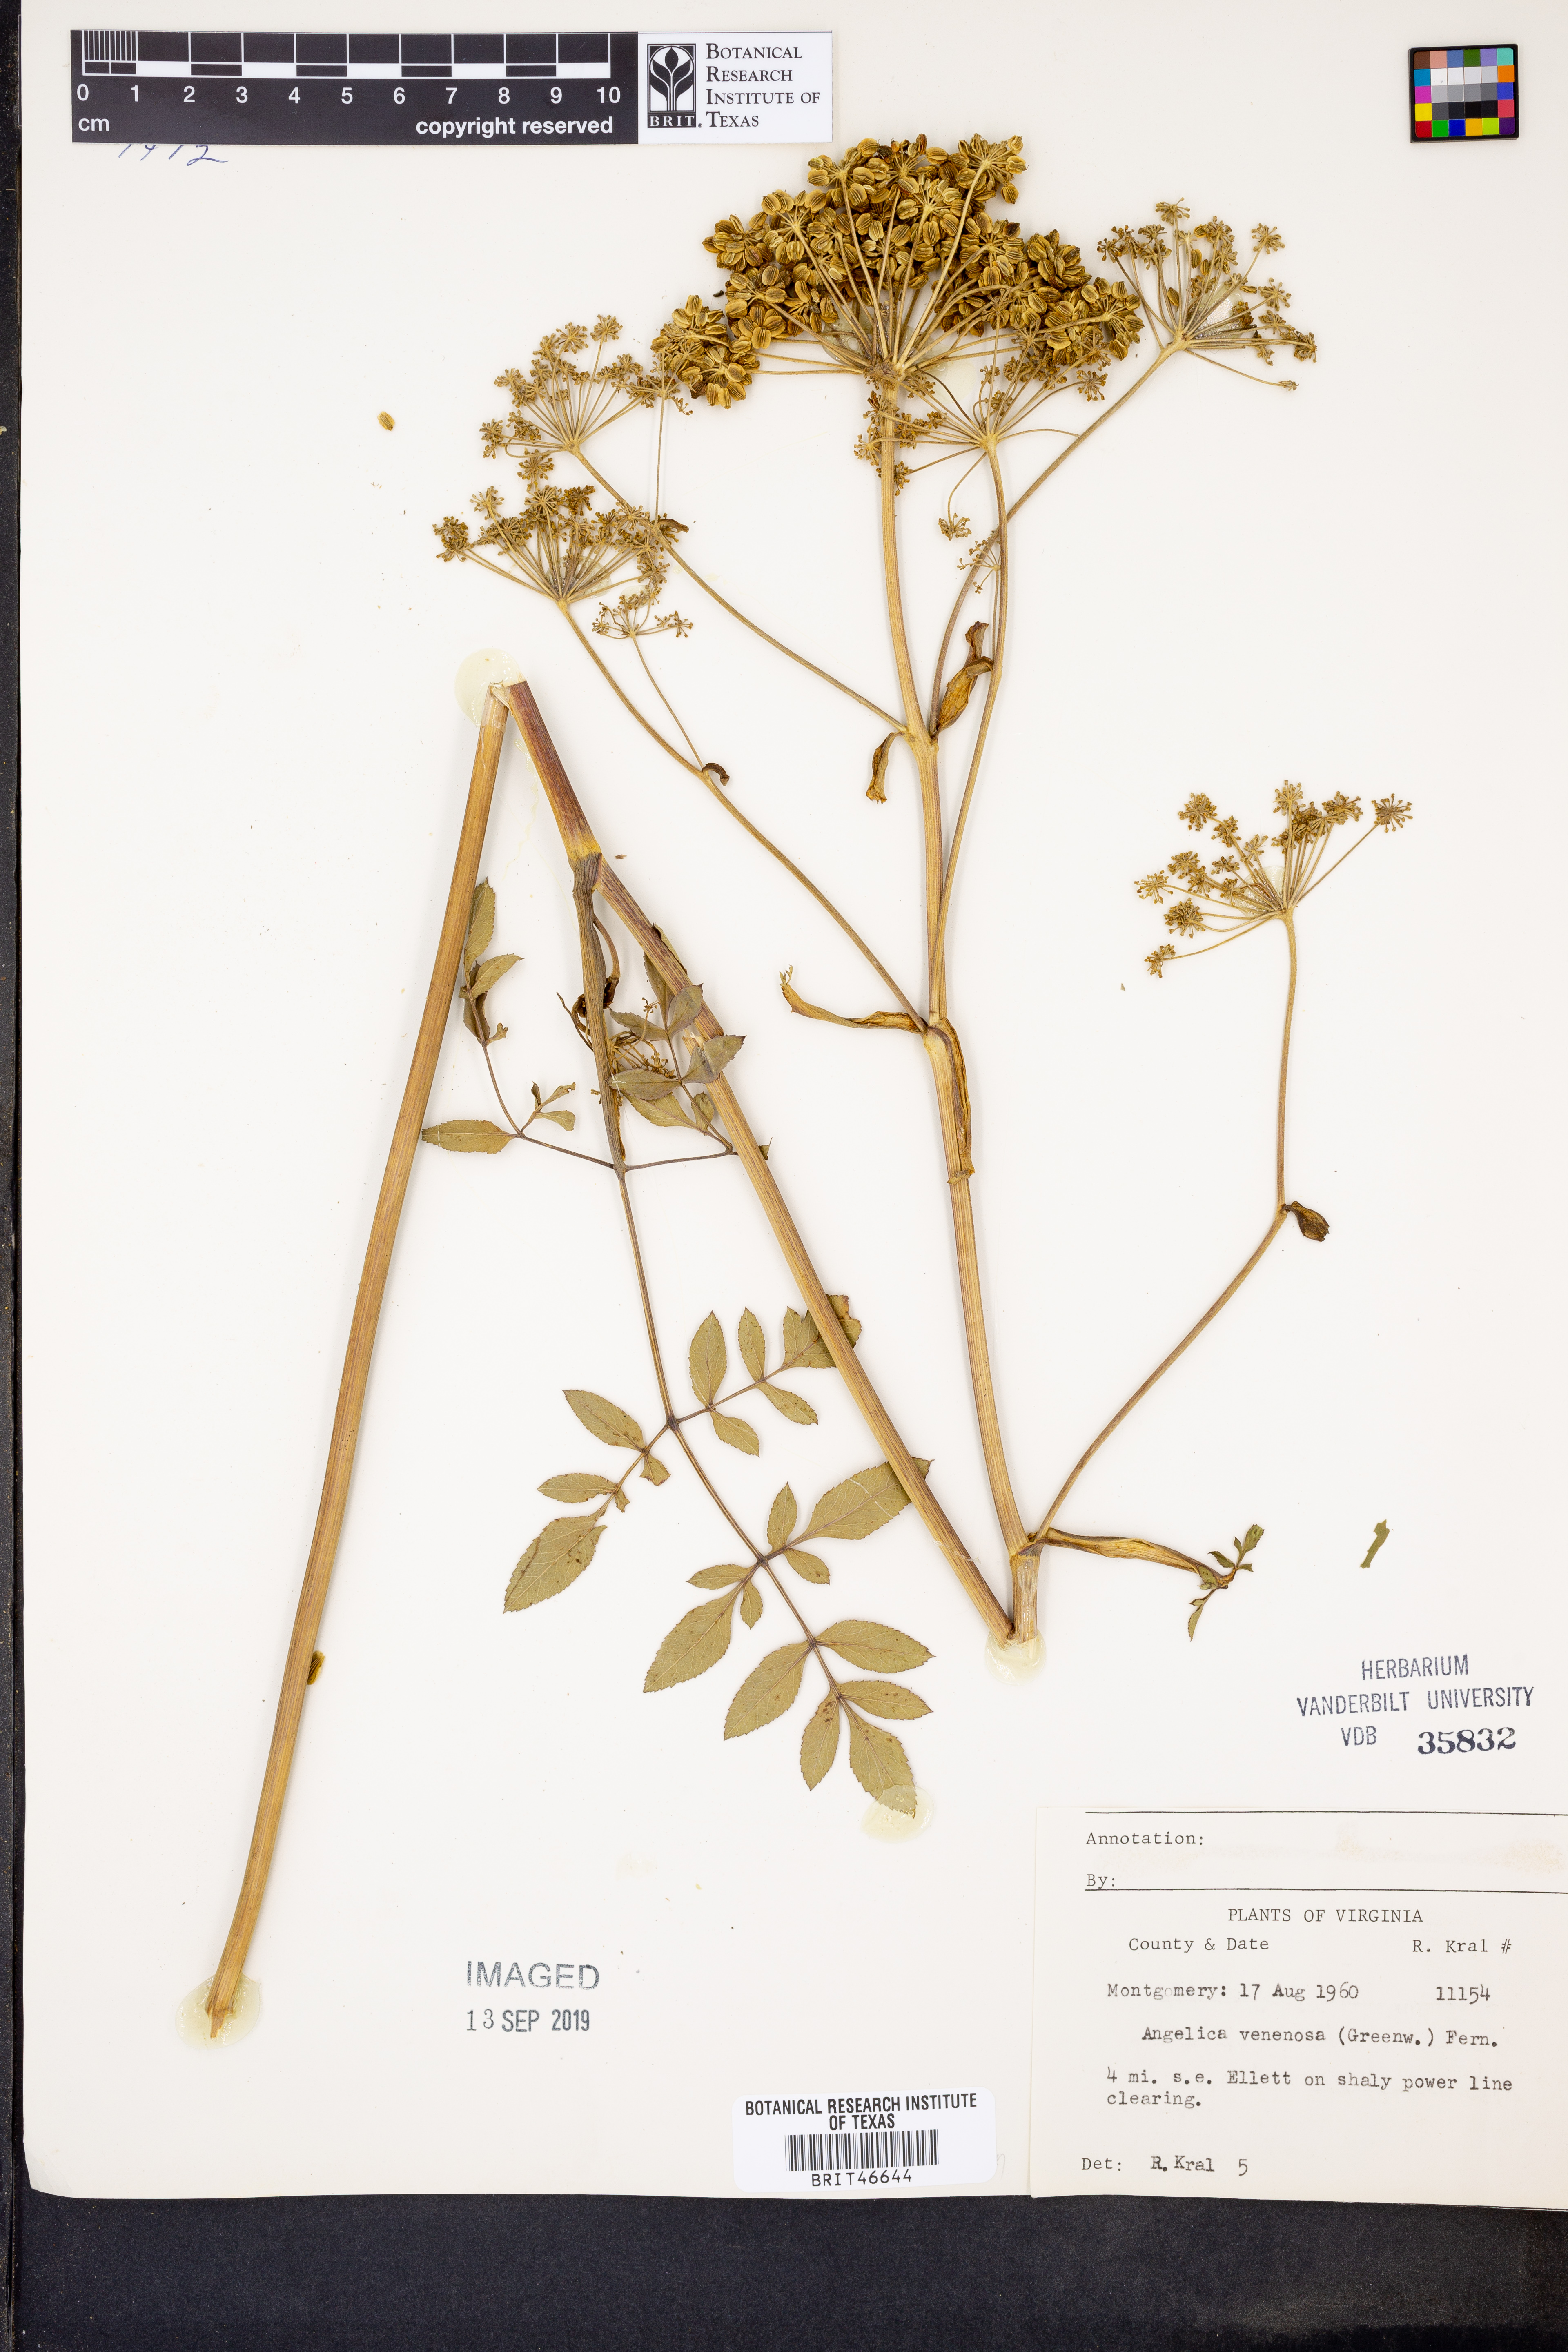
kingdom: Plantae
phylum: Tracheophyta
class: Magnoliopsida
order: Apiales
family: Apiaceae
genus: Angelica
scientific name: Angelica venenosa
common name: Hairy angelica
